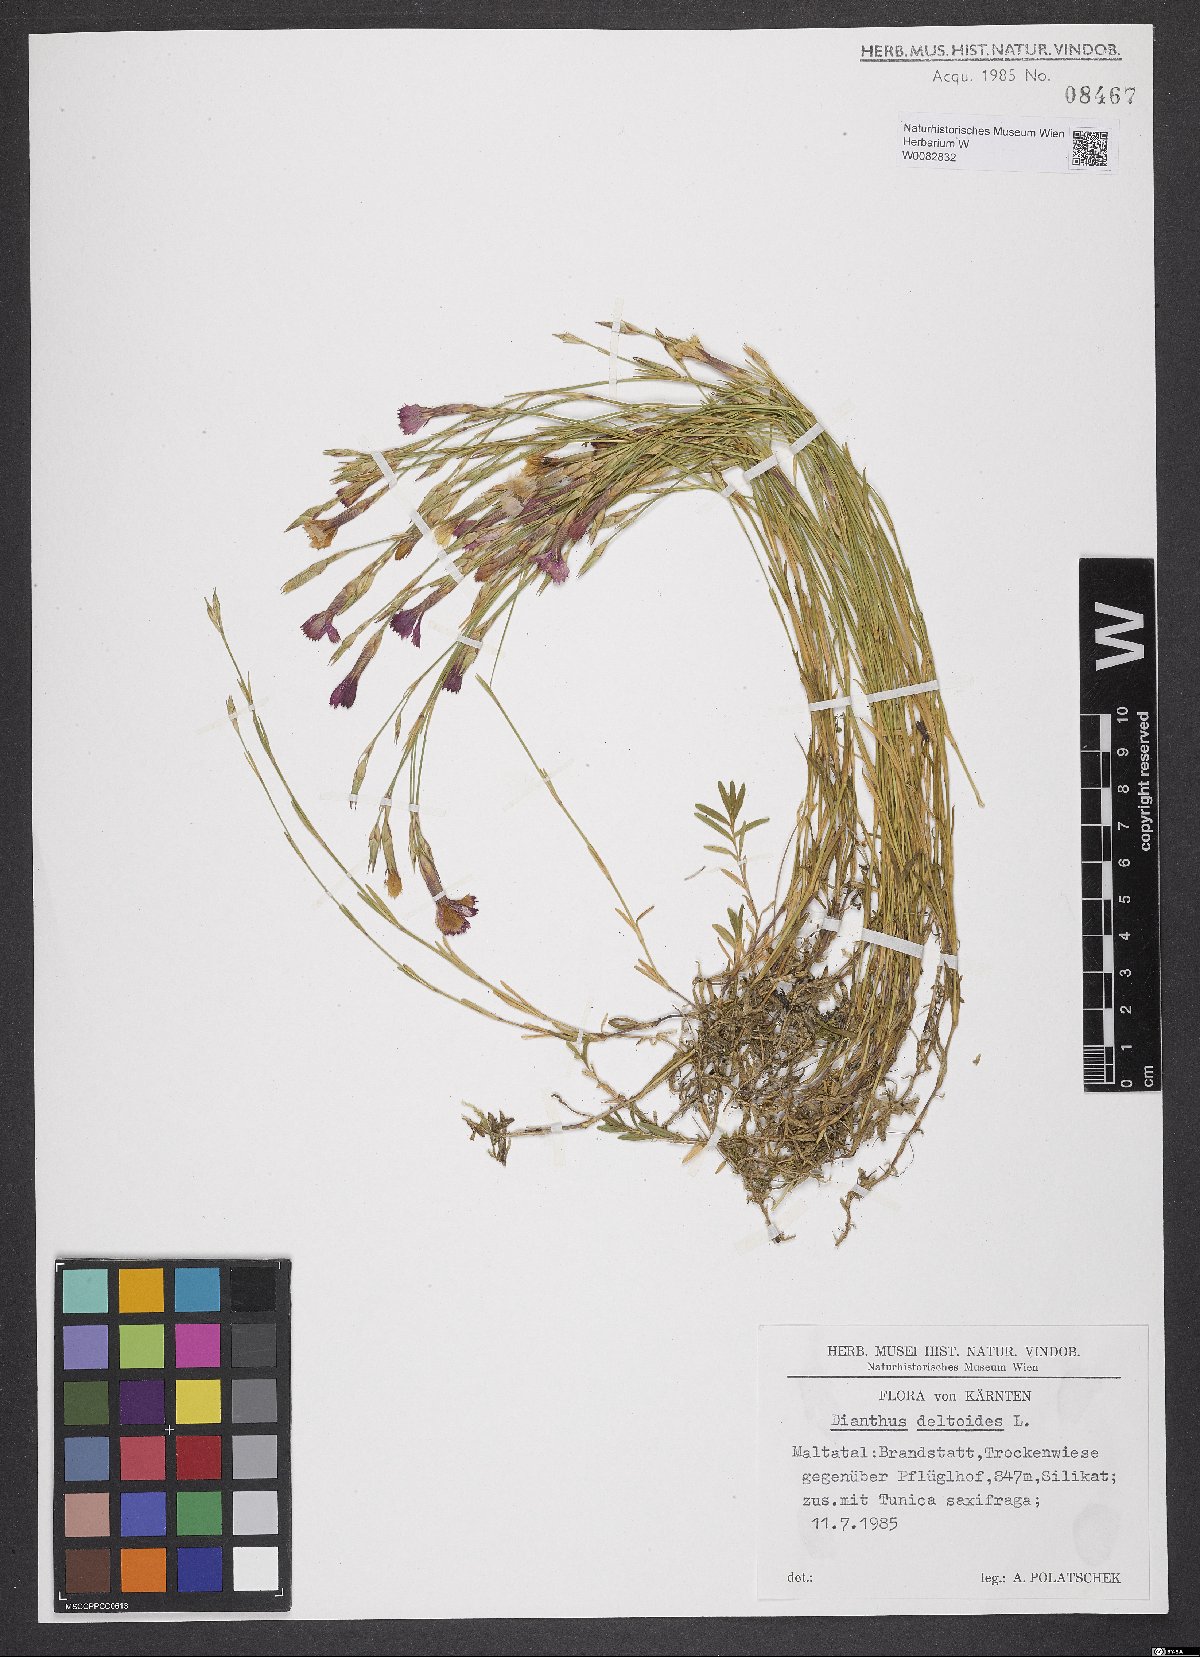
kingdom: Plantae
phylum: Tracheophyta
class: Magnoliopsida
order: Caryophyllales
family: Caryophyllaceae
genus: Dianthus
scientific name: Dianthus deltoides
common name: Maiden pink
